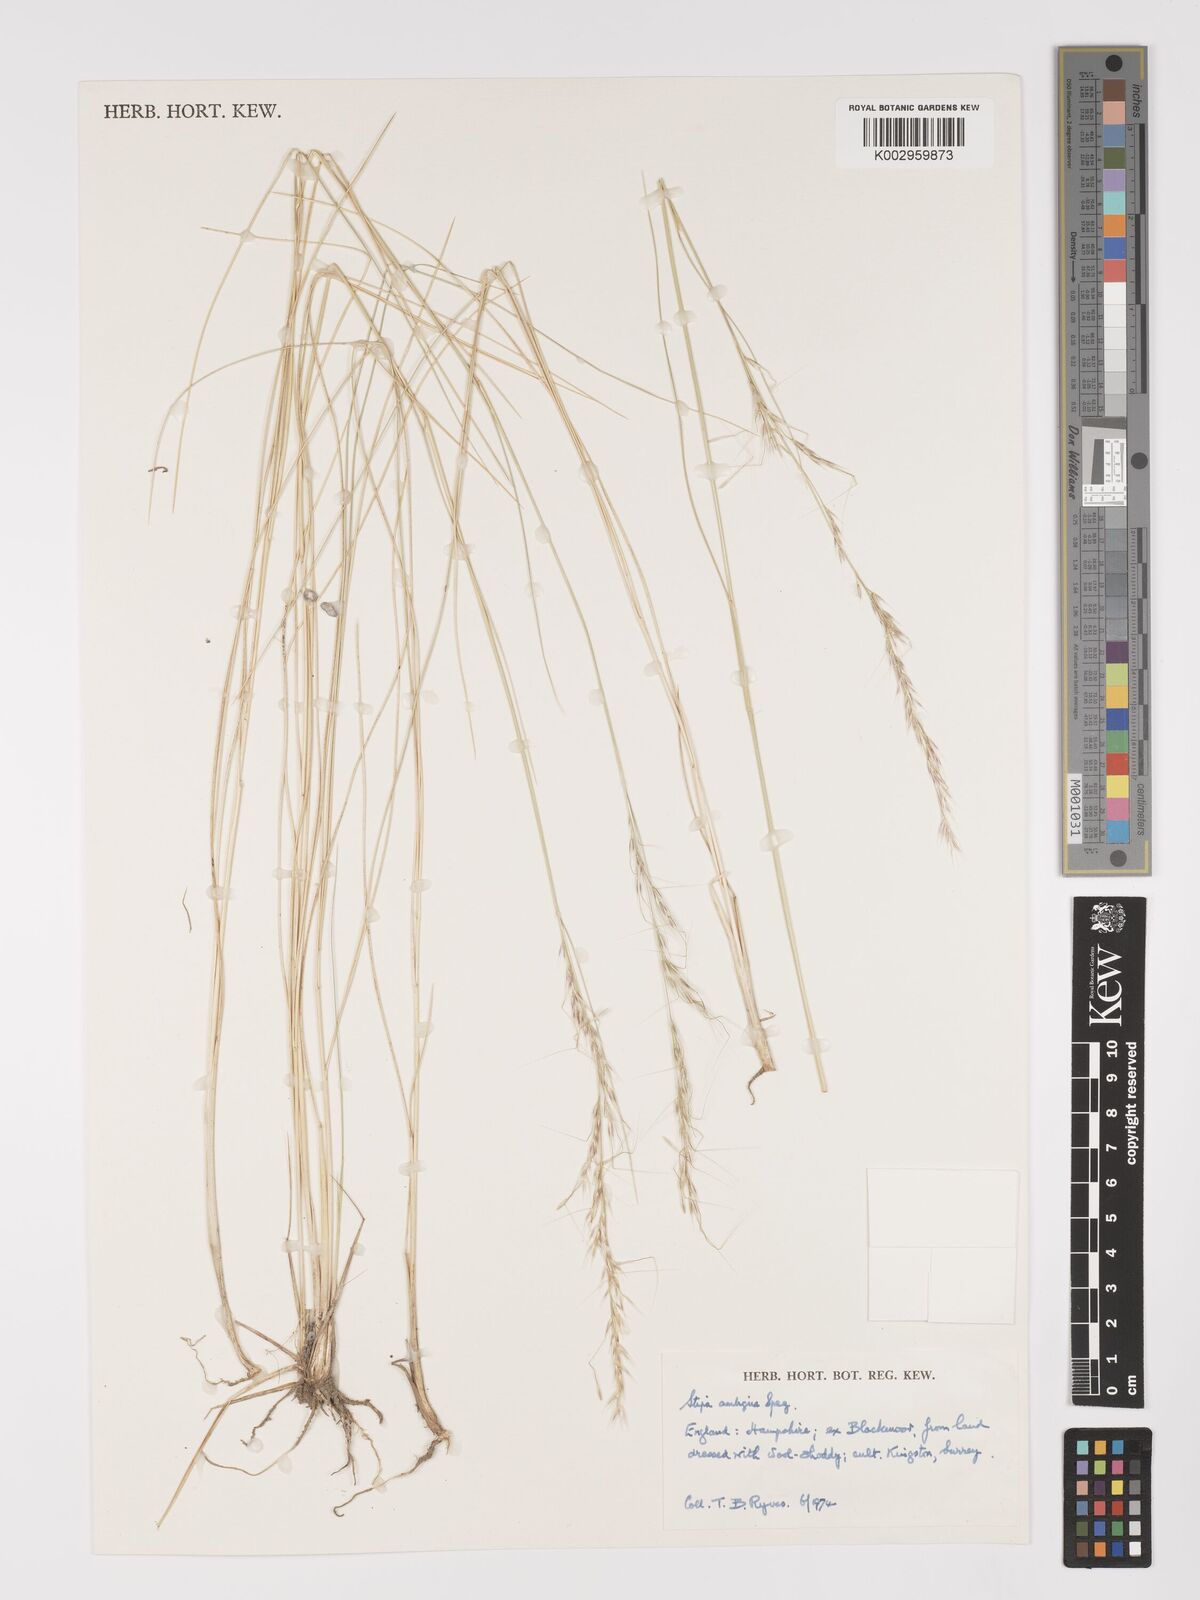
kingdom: Plantae
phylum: Tracheophyta
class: Liliopsida
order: Poales
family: Poaceae
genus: Amelichloa
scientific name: Amelichloa ambigua
